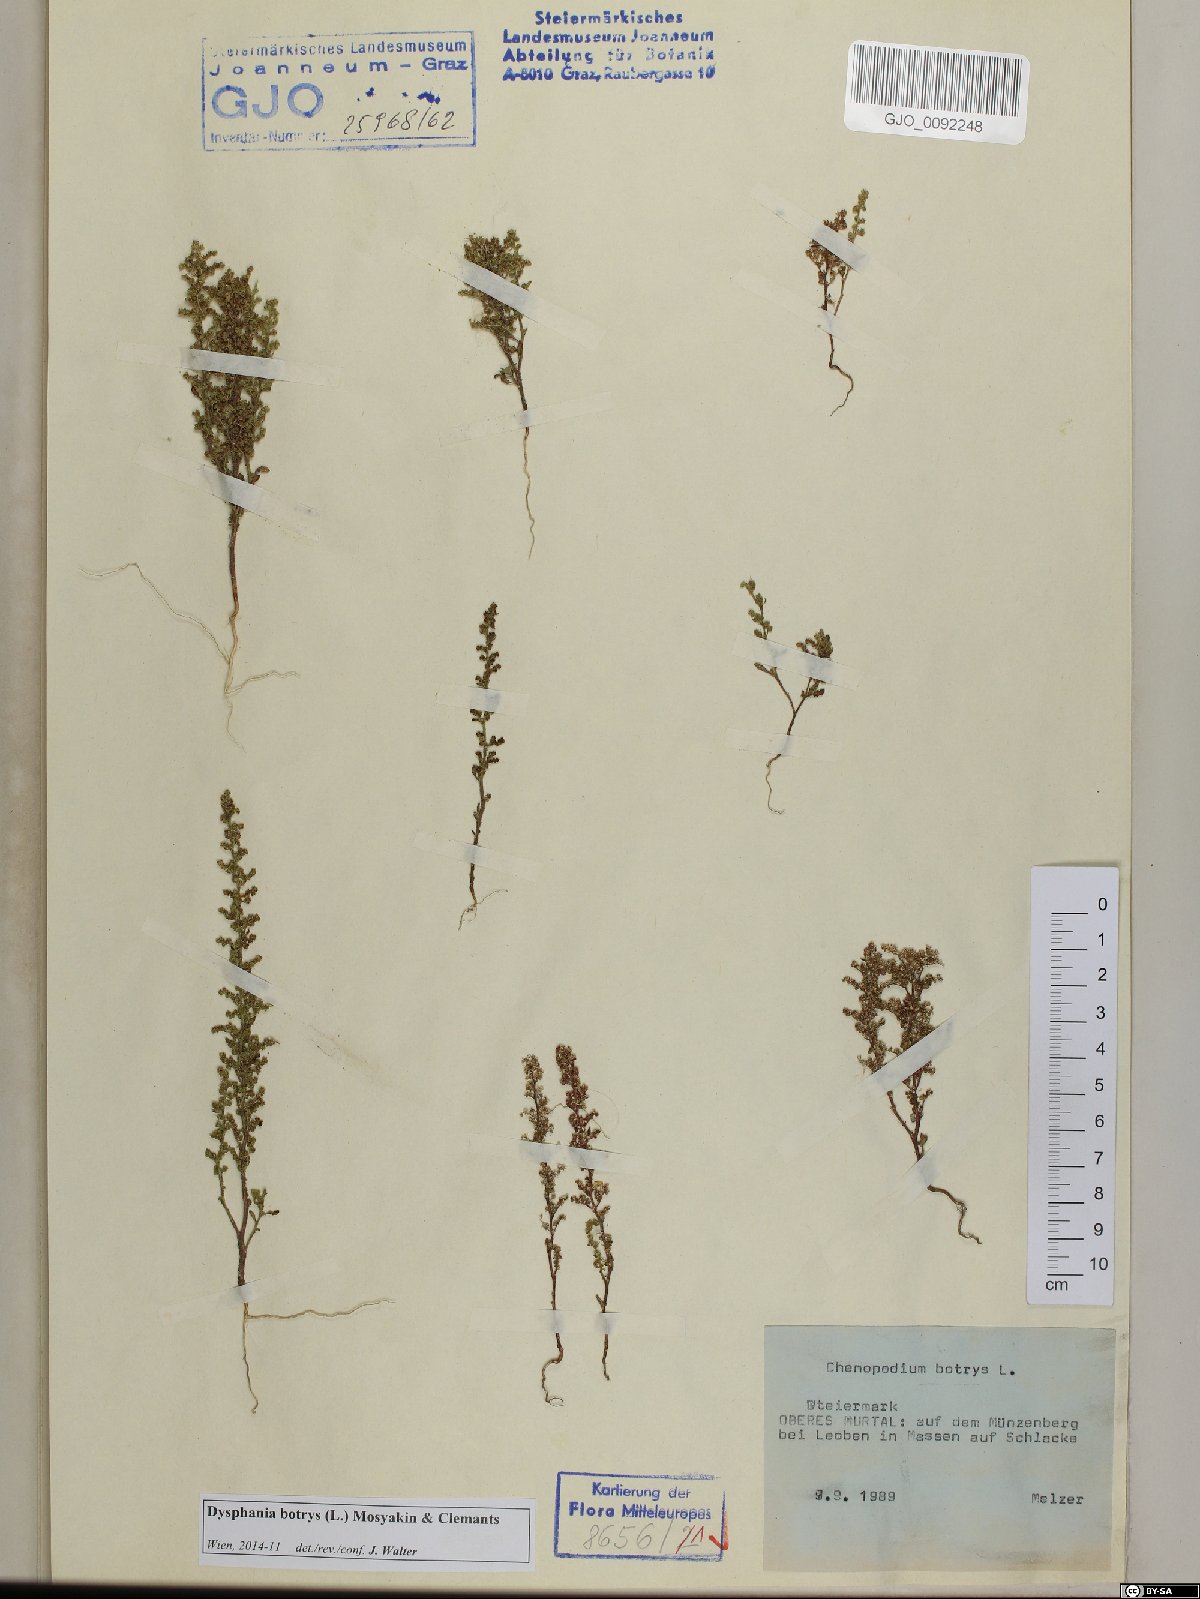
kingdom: Plantae
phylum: Tracheophyta
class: Magnoliopsida
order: Caryophyllales
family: Amaranthaceae
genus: Dysphania
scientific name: Dysphania botrys
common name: Feather-geranium
